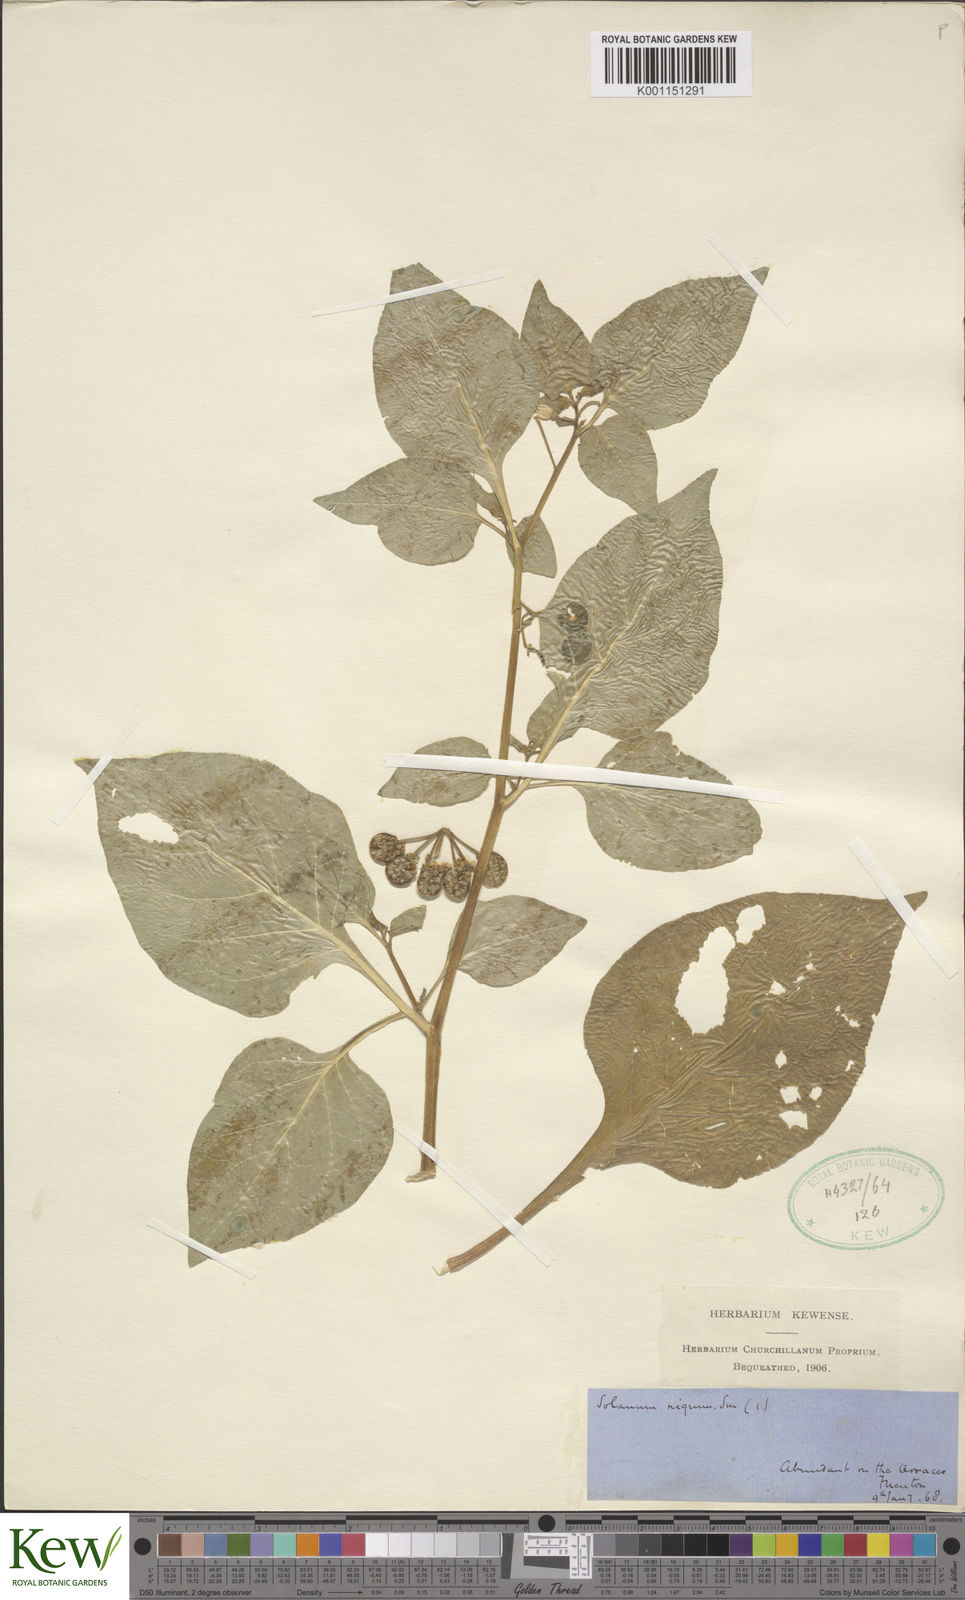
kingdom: Plantae
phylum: Tracheophyta
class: Magnoliopsida
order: Solanales
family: Solanaceae
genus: Solanum
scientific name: Solanum nigrum
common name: Black nightshade
